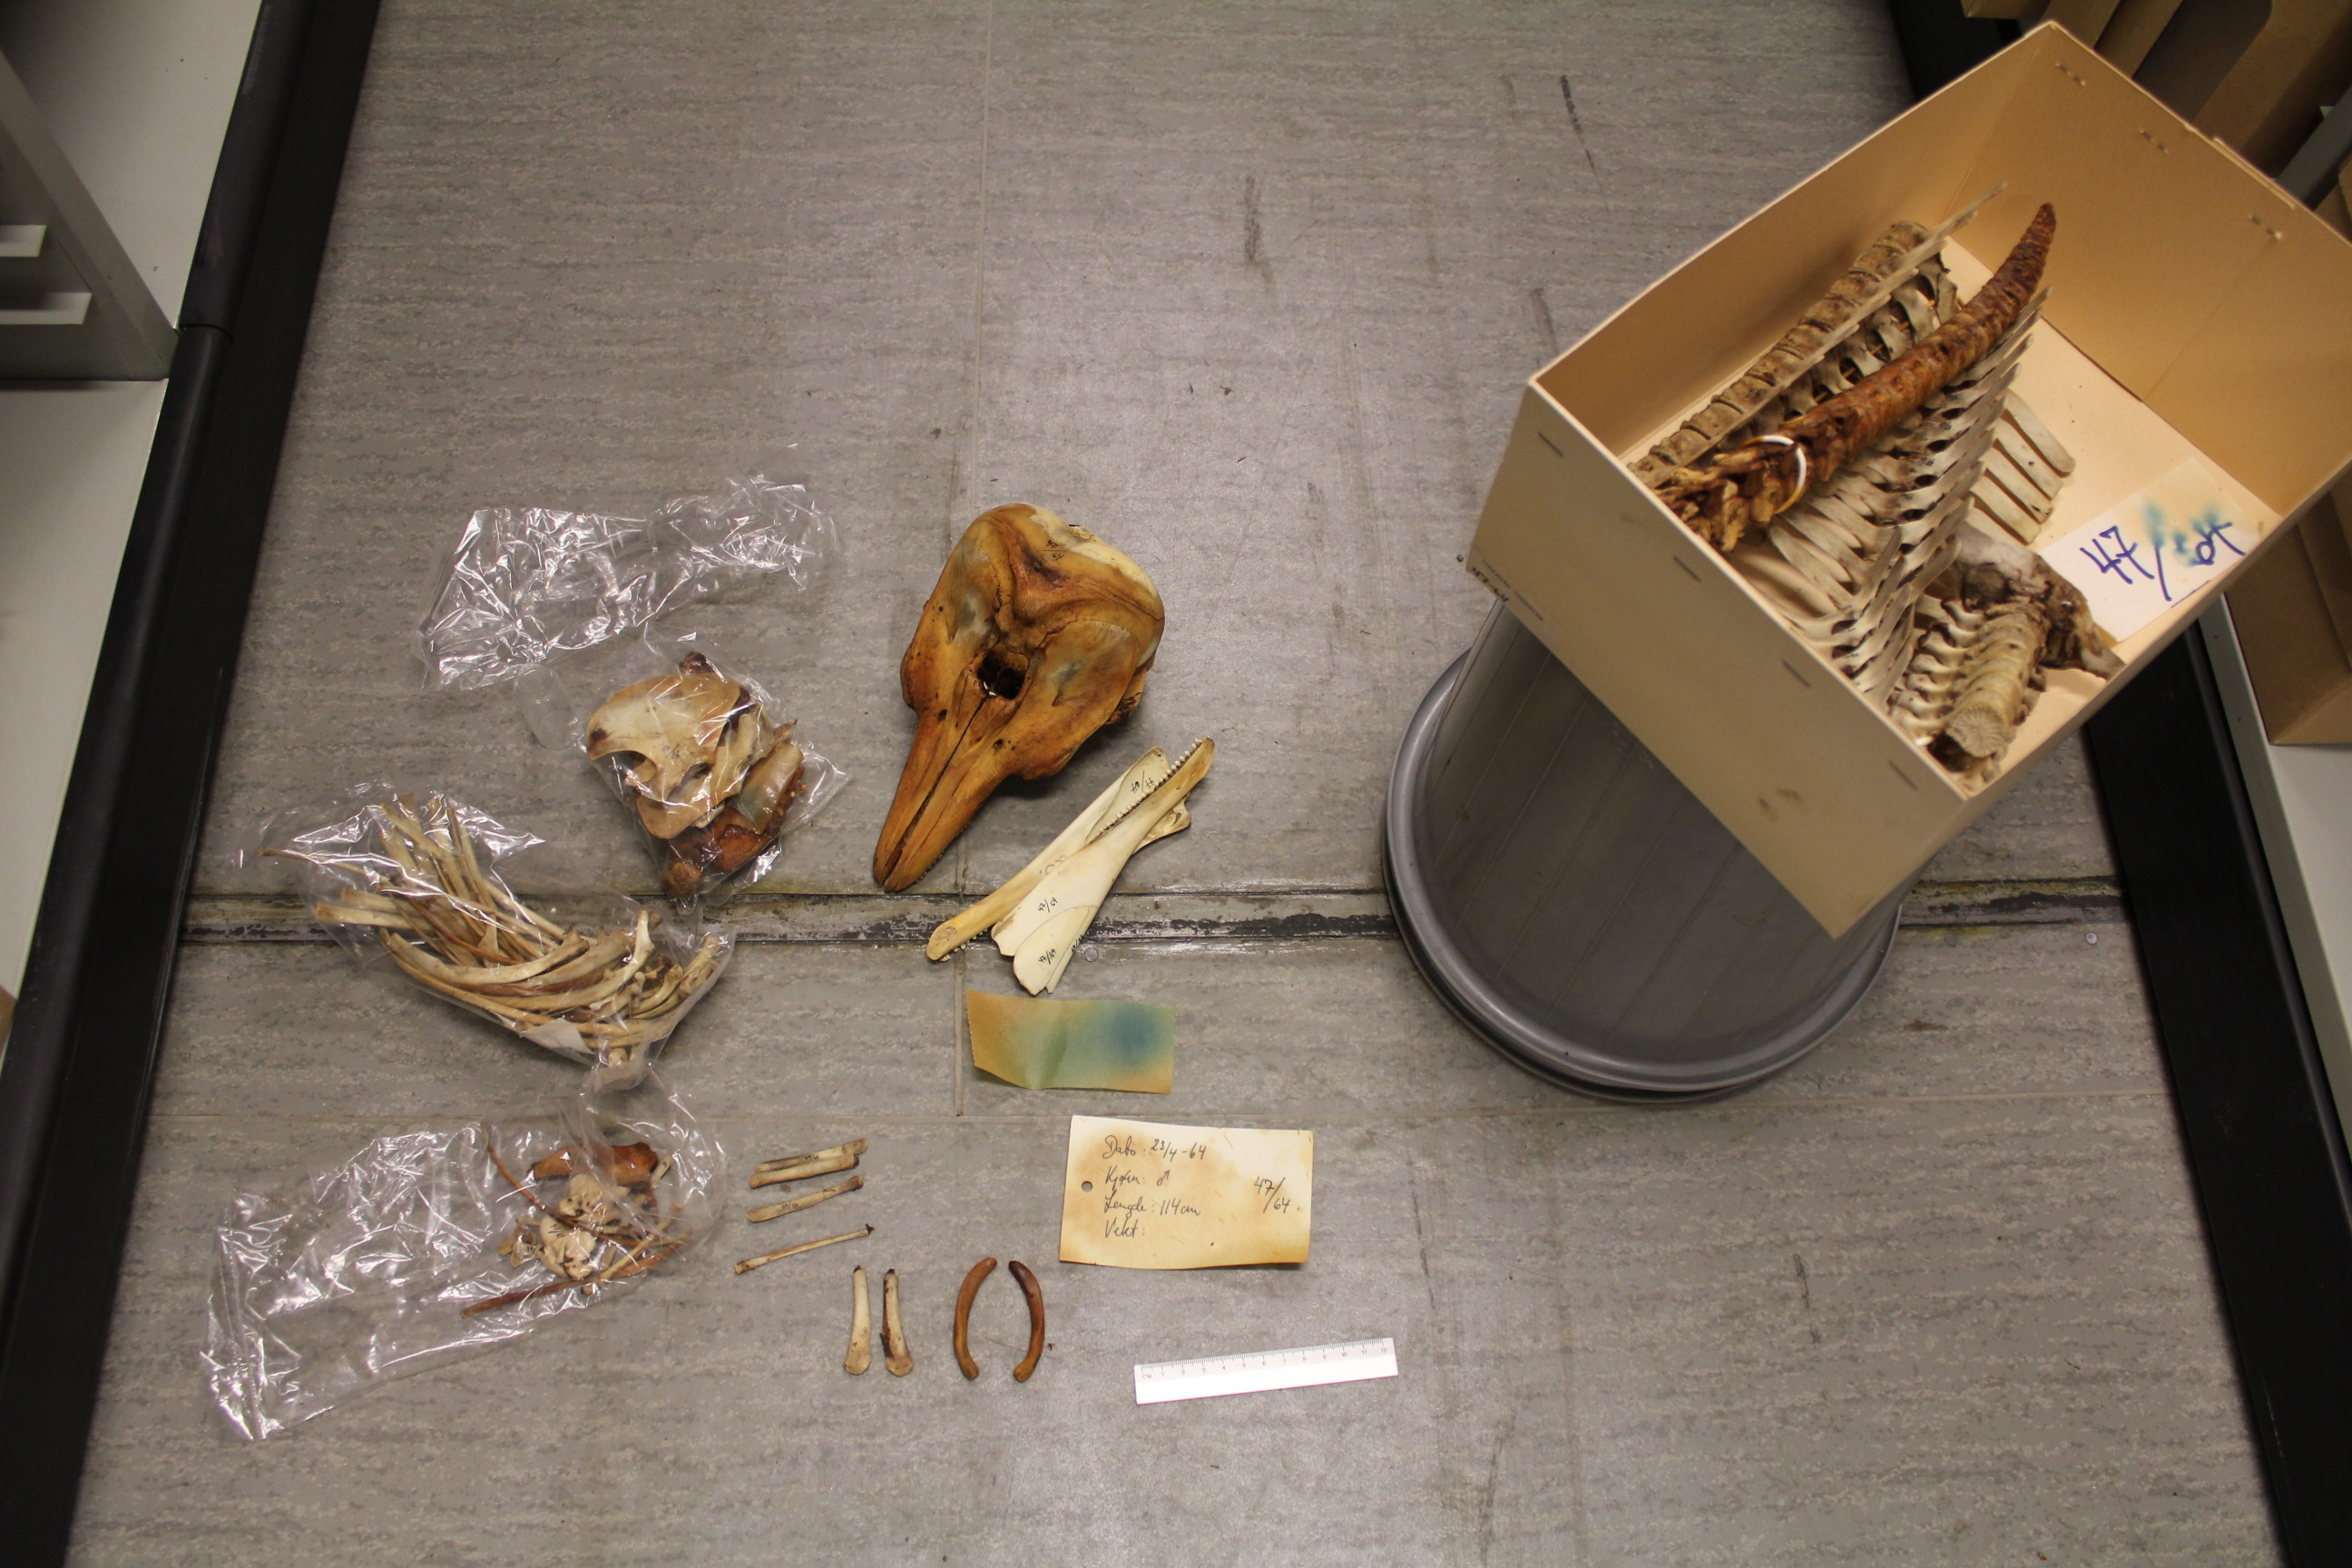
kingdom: Animalia
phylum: Chordata
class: Mammalia
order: Cetacea
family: Phocoenidae
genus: Phocoena
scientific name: Phocoena phocoena
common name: Harbor porpoise
